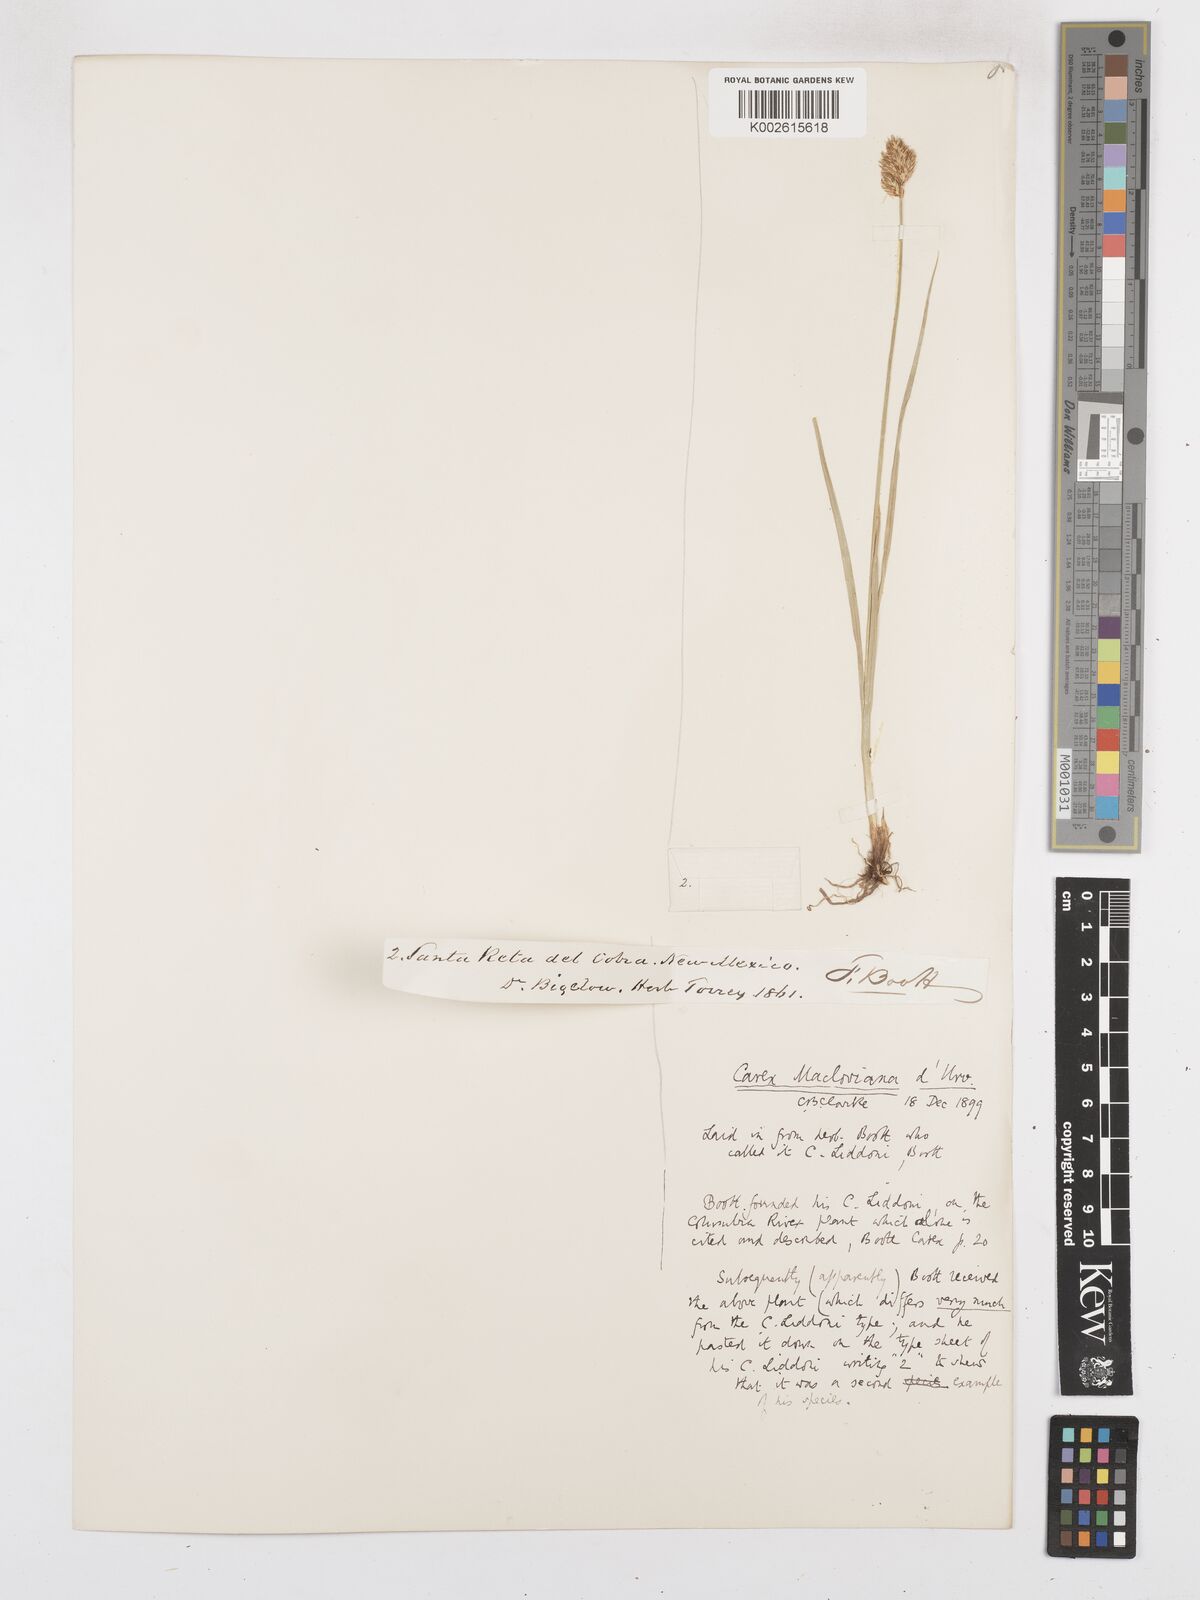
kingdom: Plantae
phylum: Tracheophyta
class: Liliopsida
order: Poales
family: Cyperaceae
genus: Carex
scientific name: Carex harfordii
